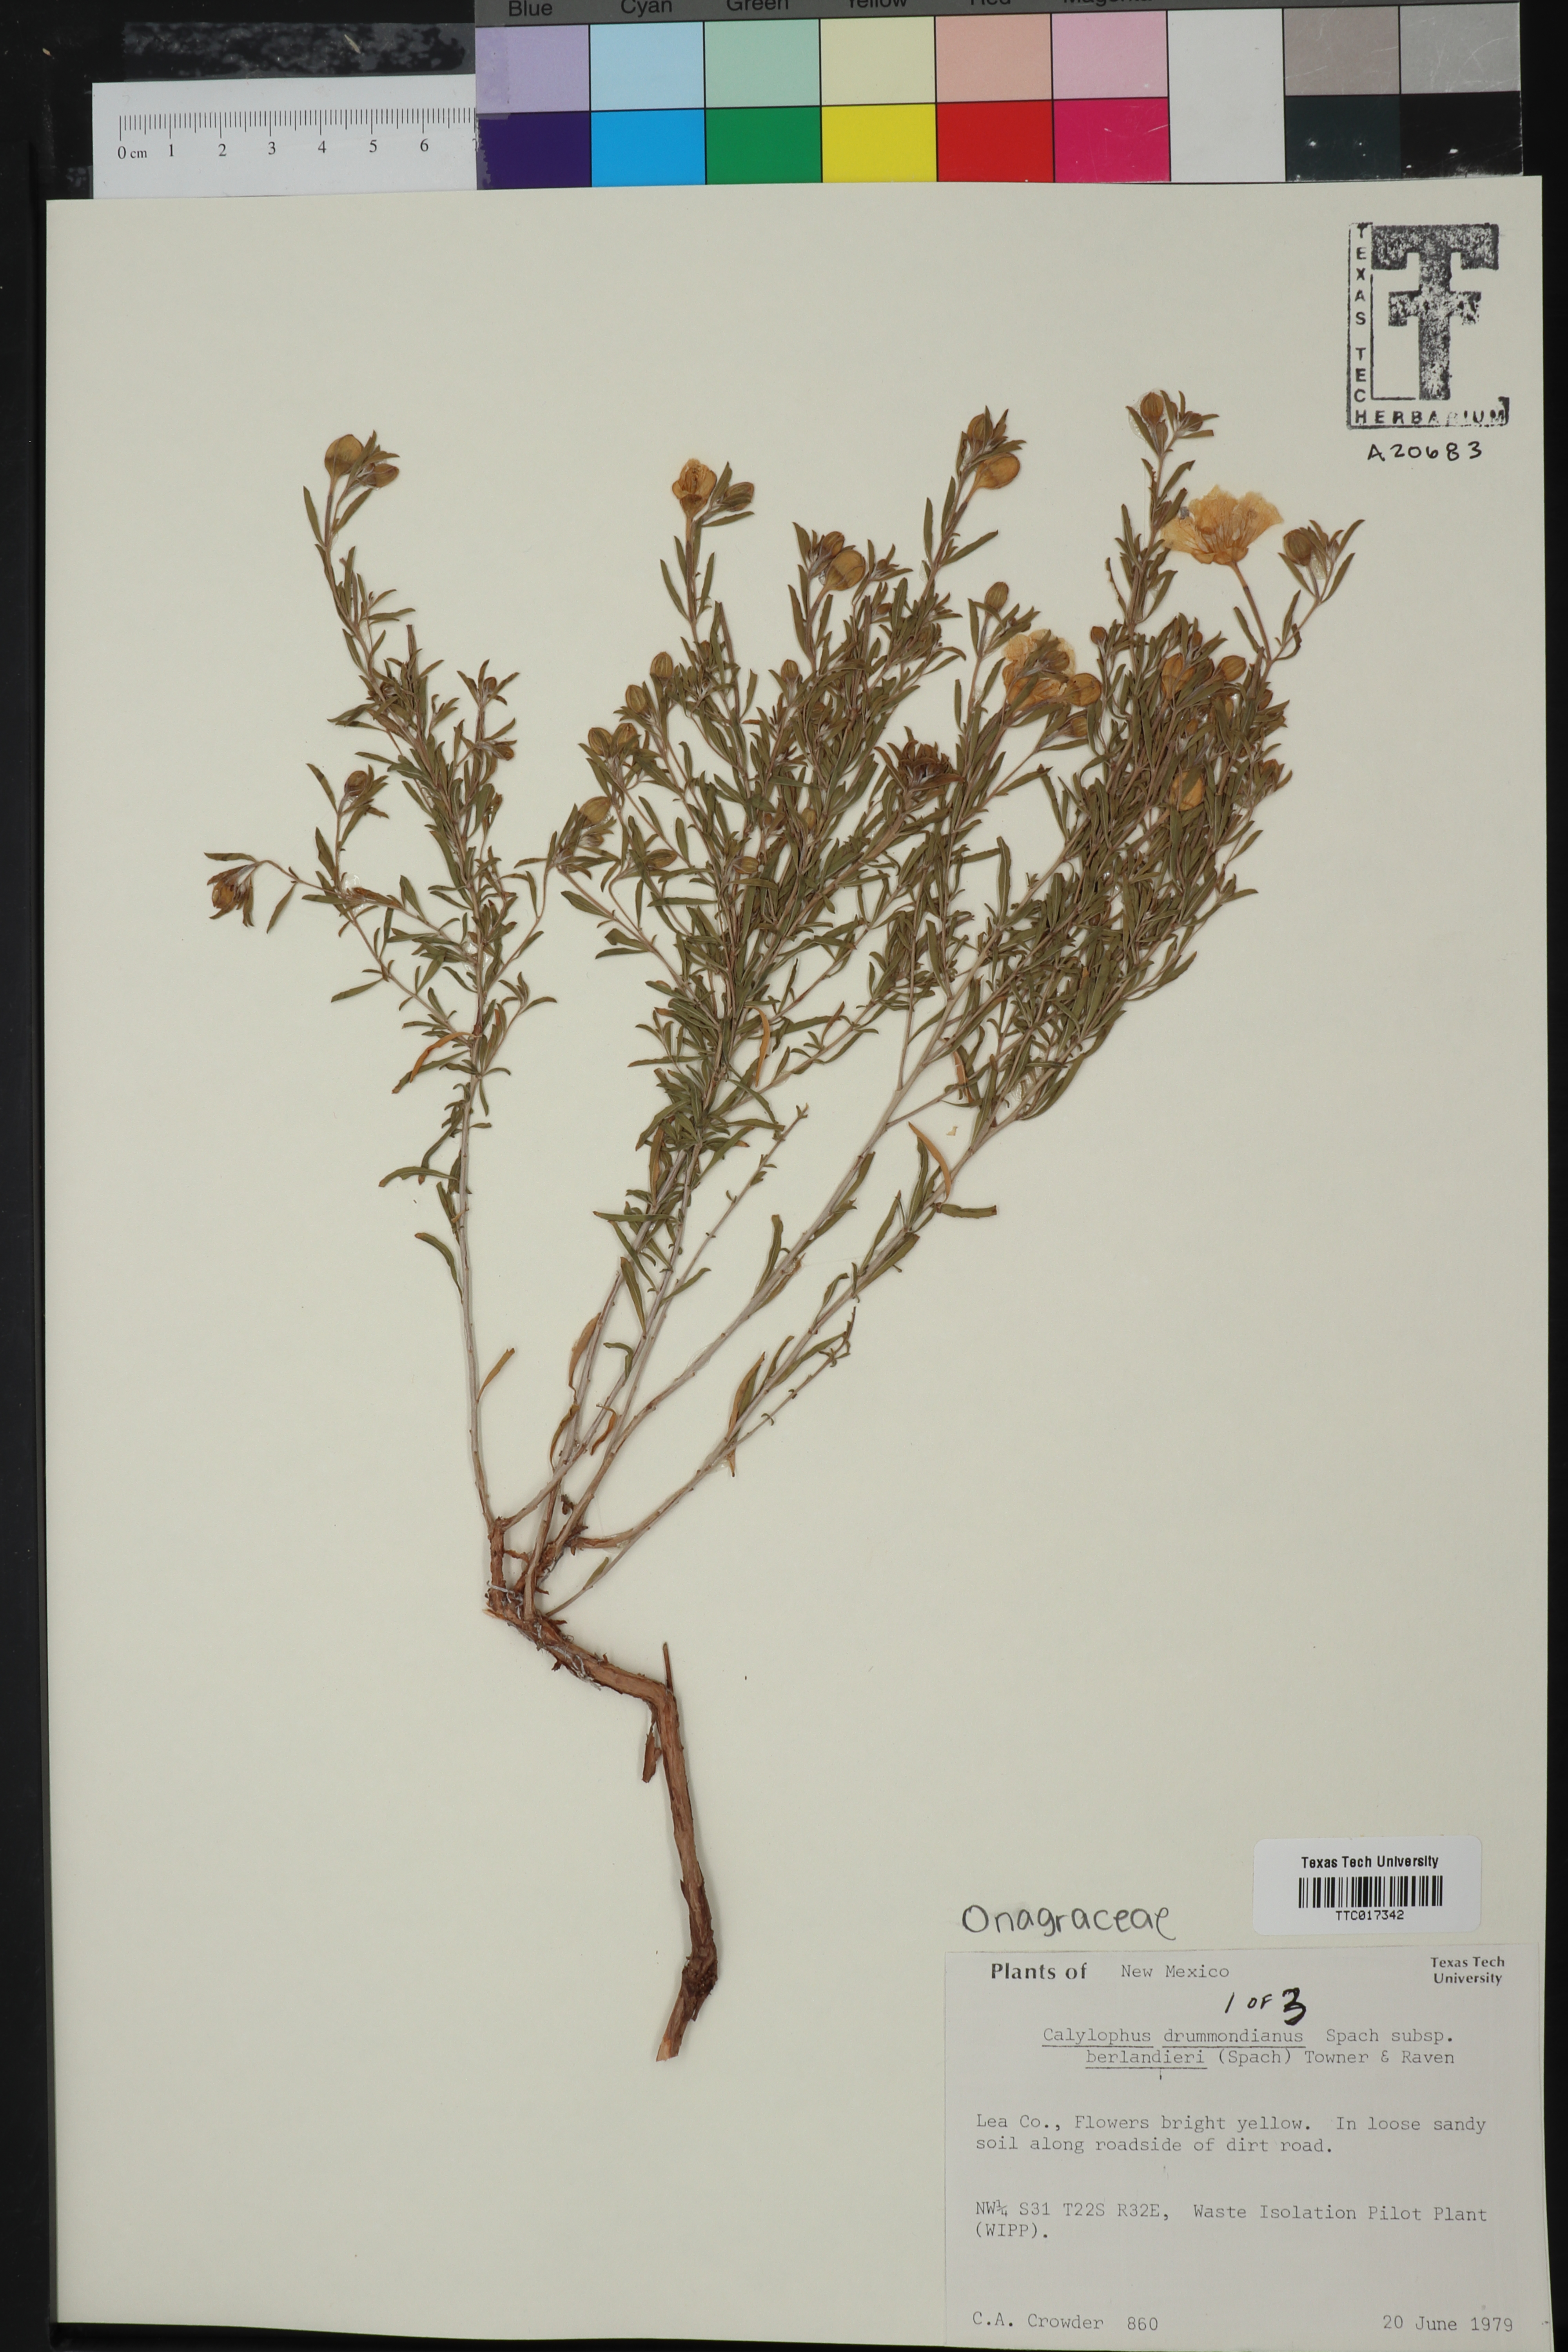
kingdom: Plantae
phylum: Tracheophyta
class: Magnoliopsida
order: Myrtales
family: Onagraceae
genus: Oenothera
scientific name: Oenothera serrulata
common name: Half-shrub calylophus
